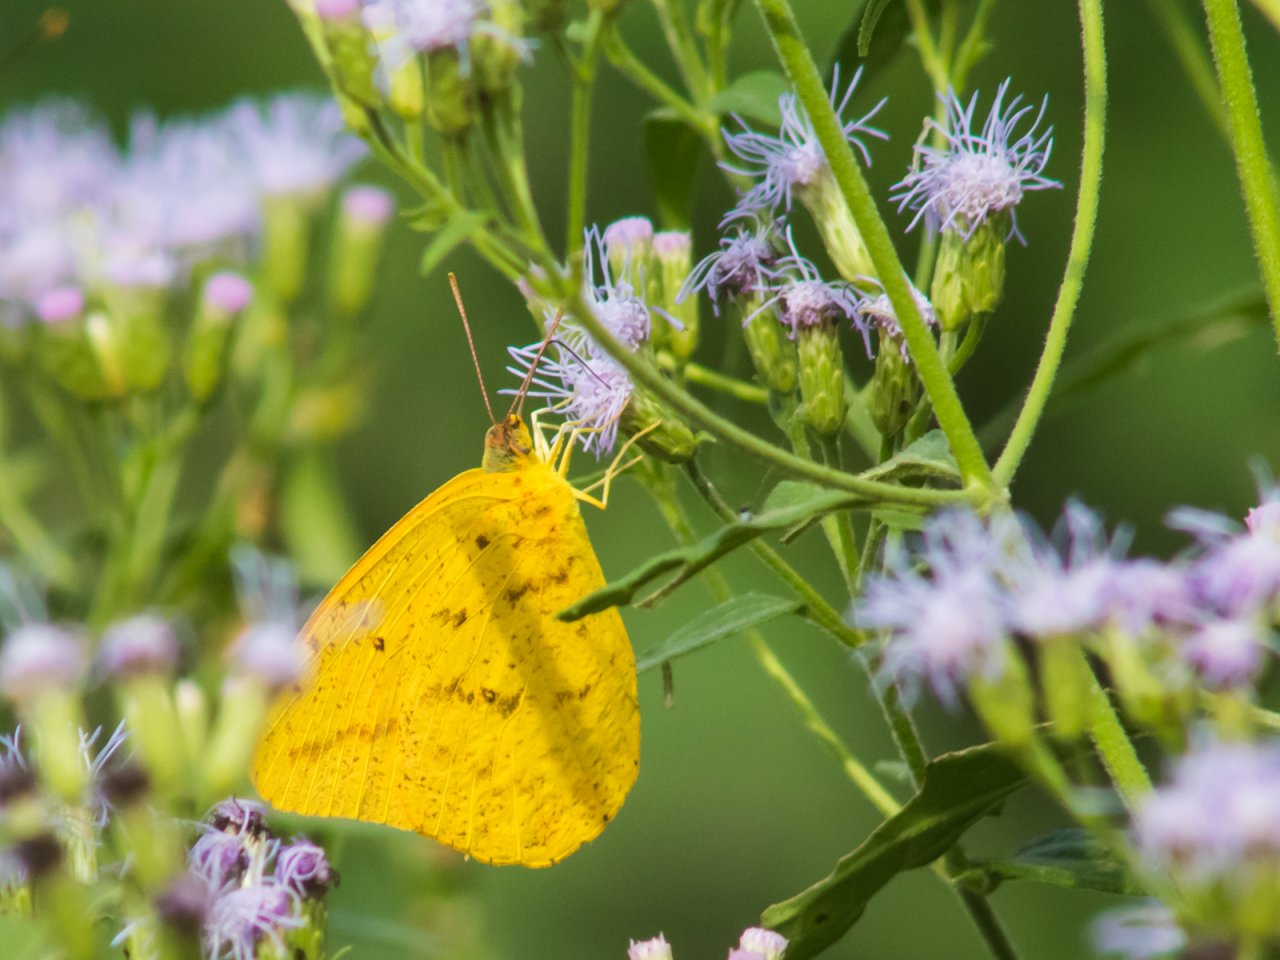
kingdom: Animalia
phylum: Arthropoda
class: Insecta
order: Lepidoptera
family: Pieridae
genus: Phoebis
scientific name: Phoebis agarithe
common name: Large Orange Sulphur
